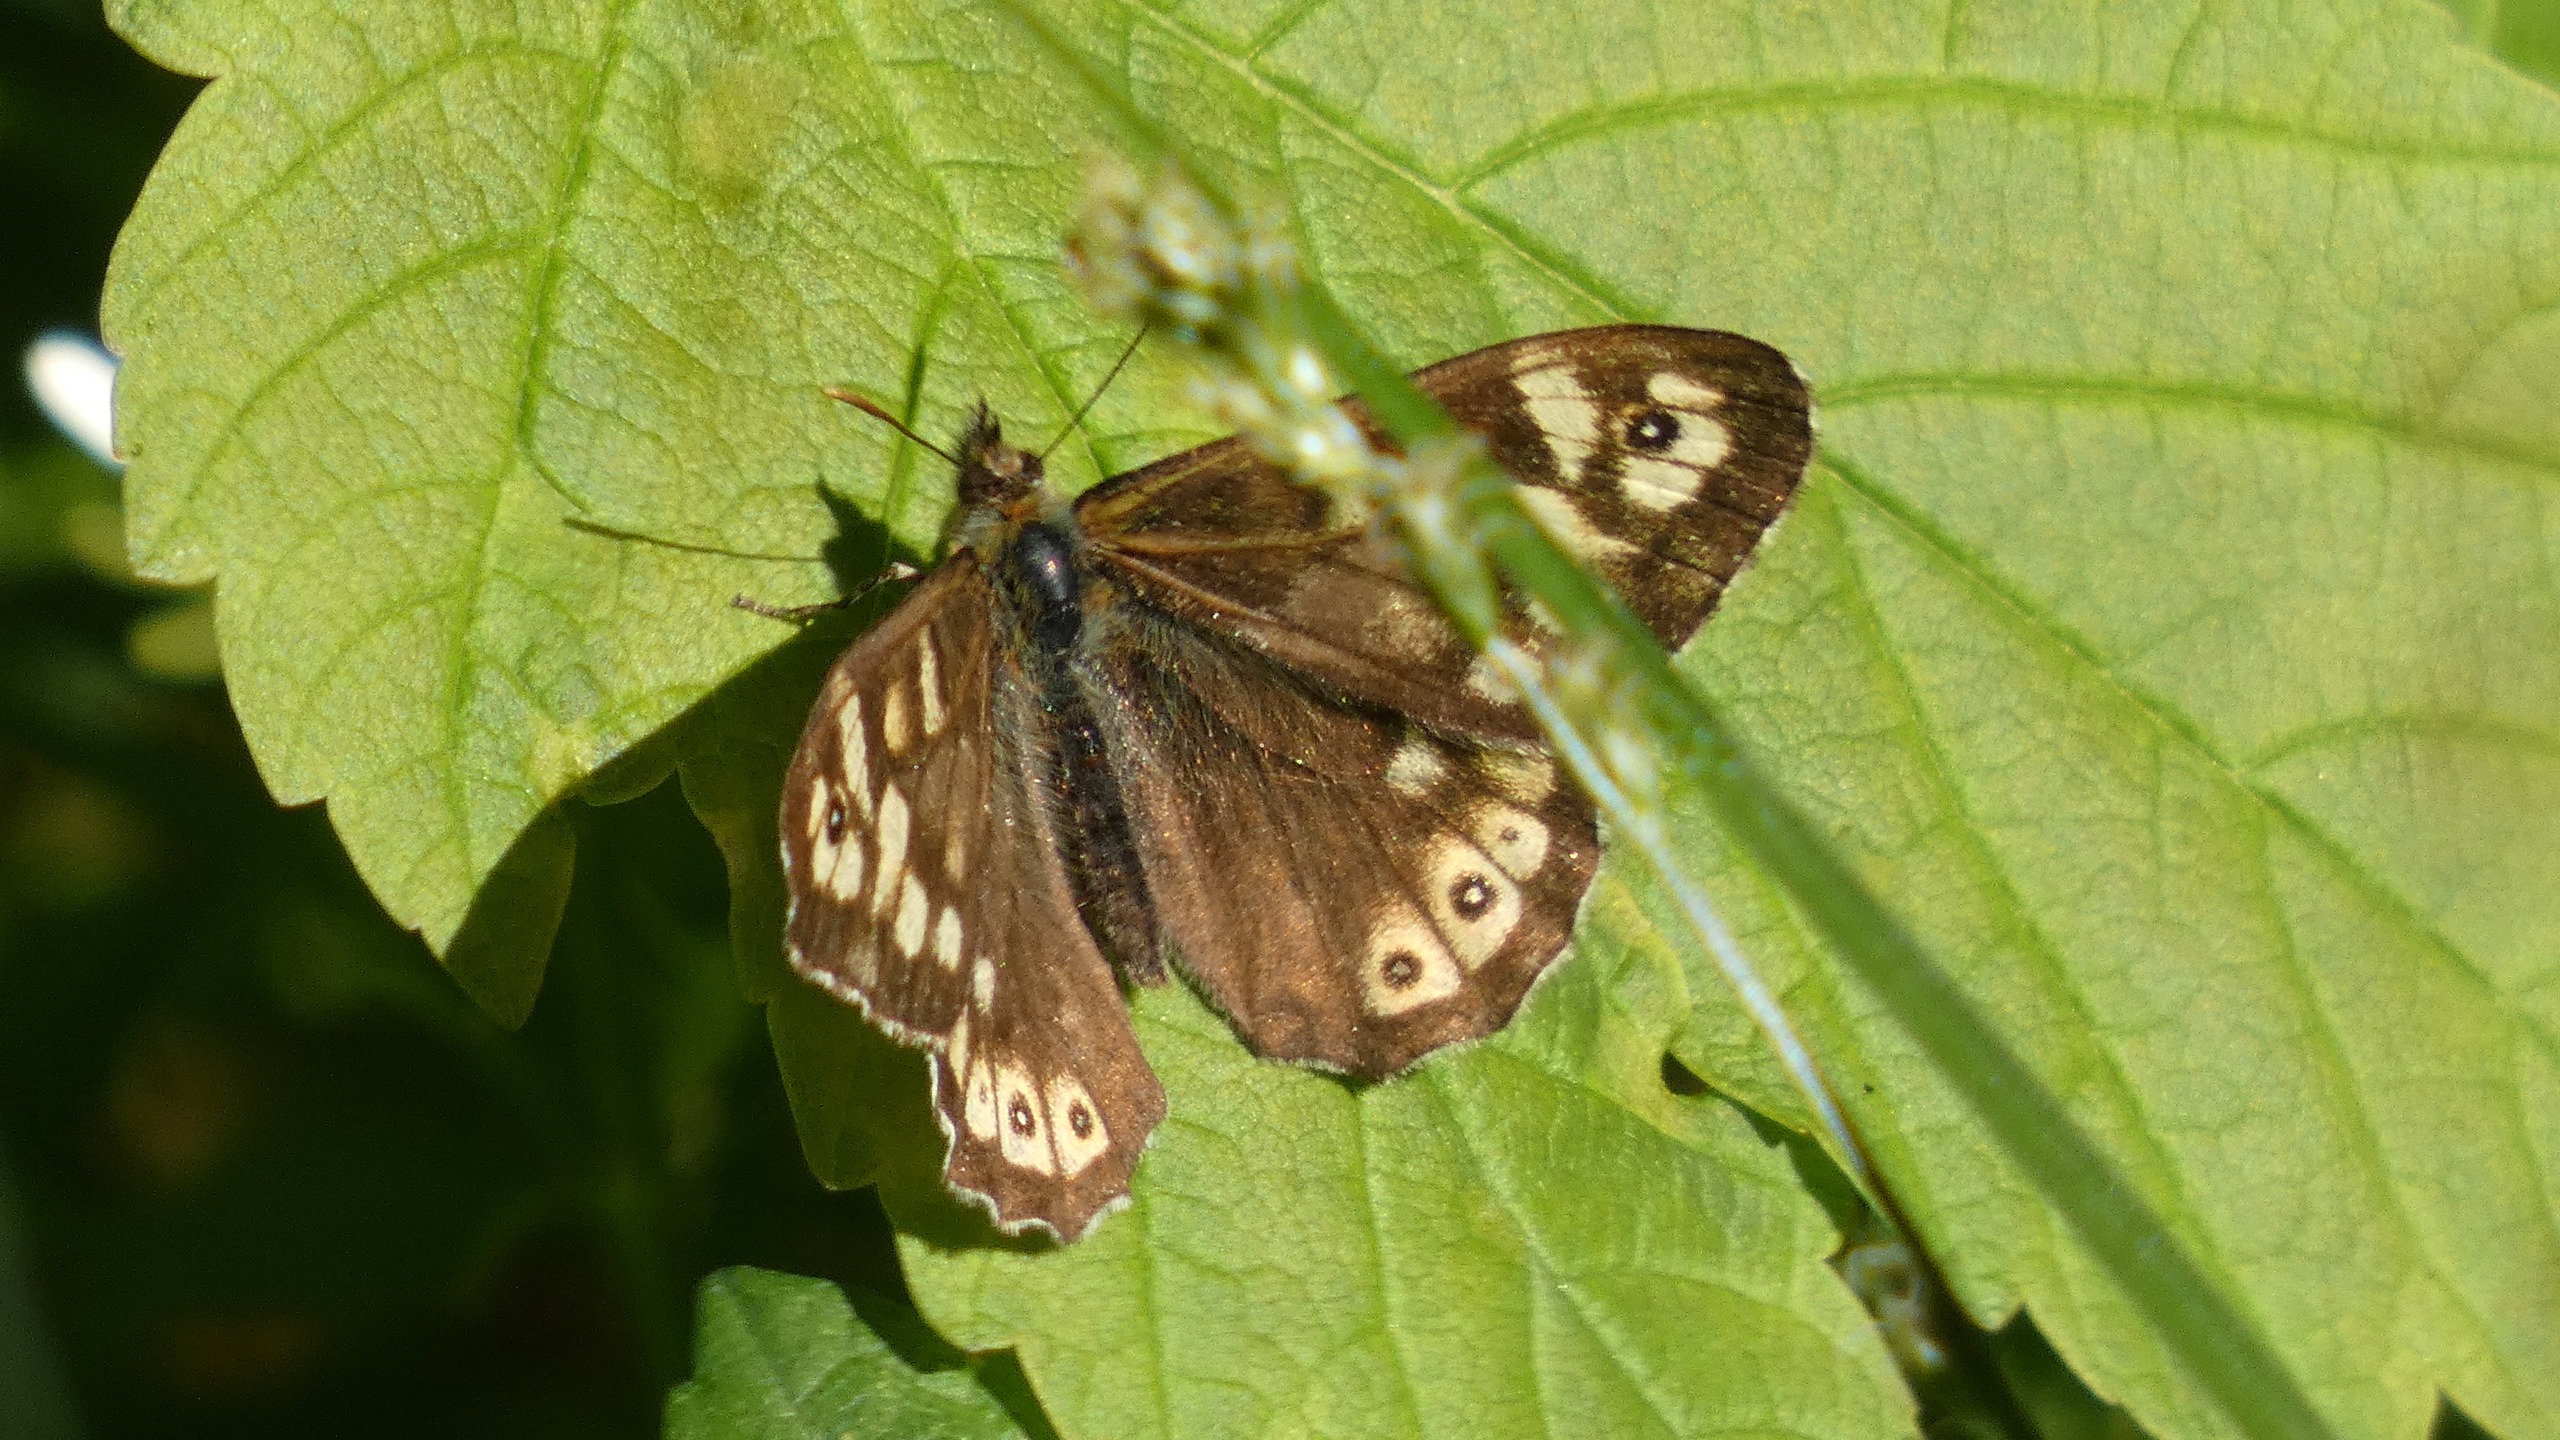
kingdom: Animalia
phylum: Arthropoda
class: Insecta
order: Lepidoptera
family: Nymphalidae
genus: Pararge
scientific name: Pararge aegeria
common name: Skovrandøje
